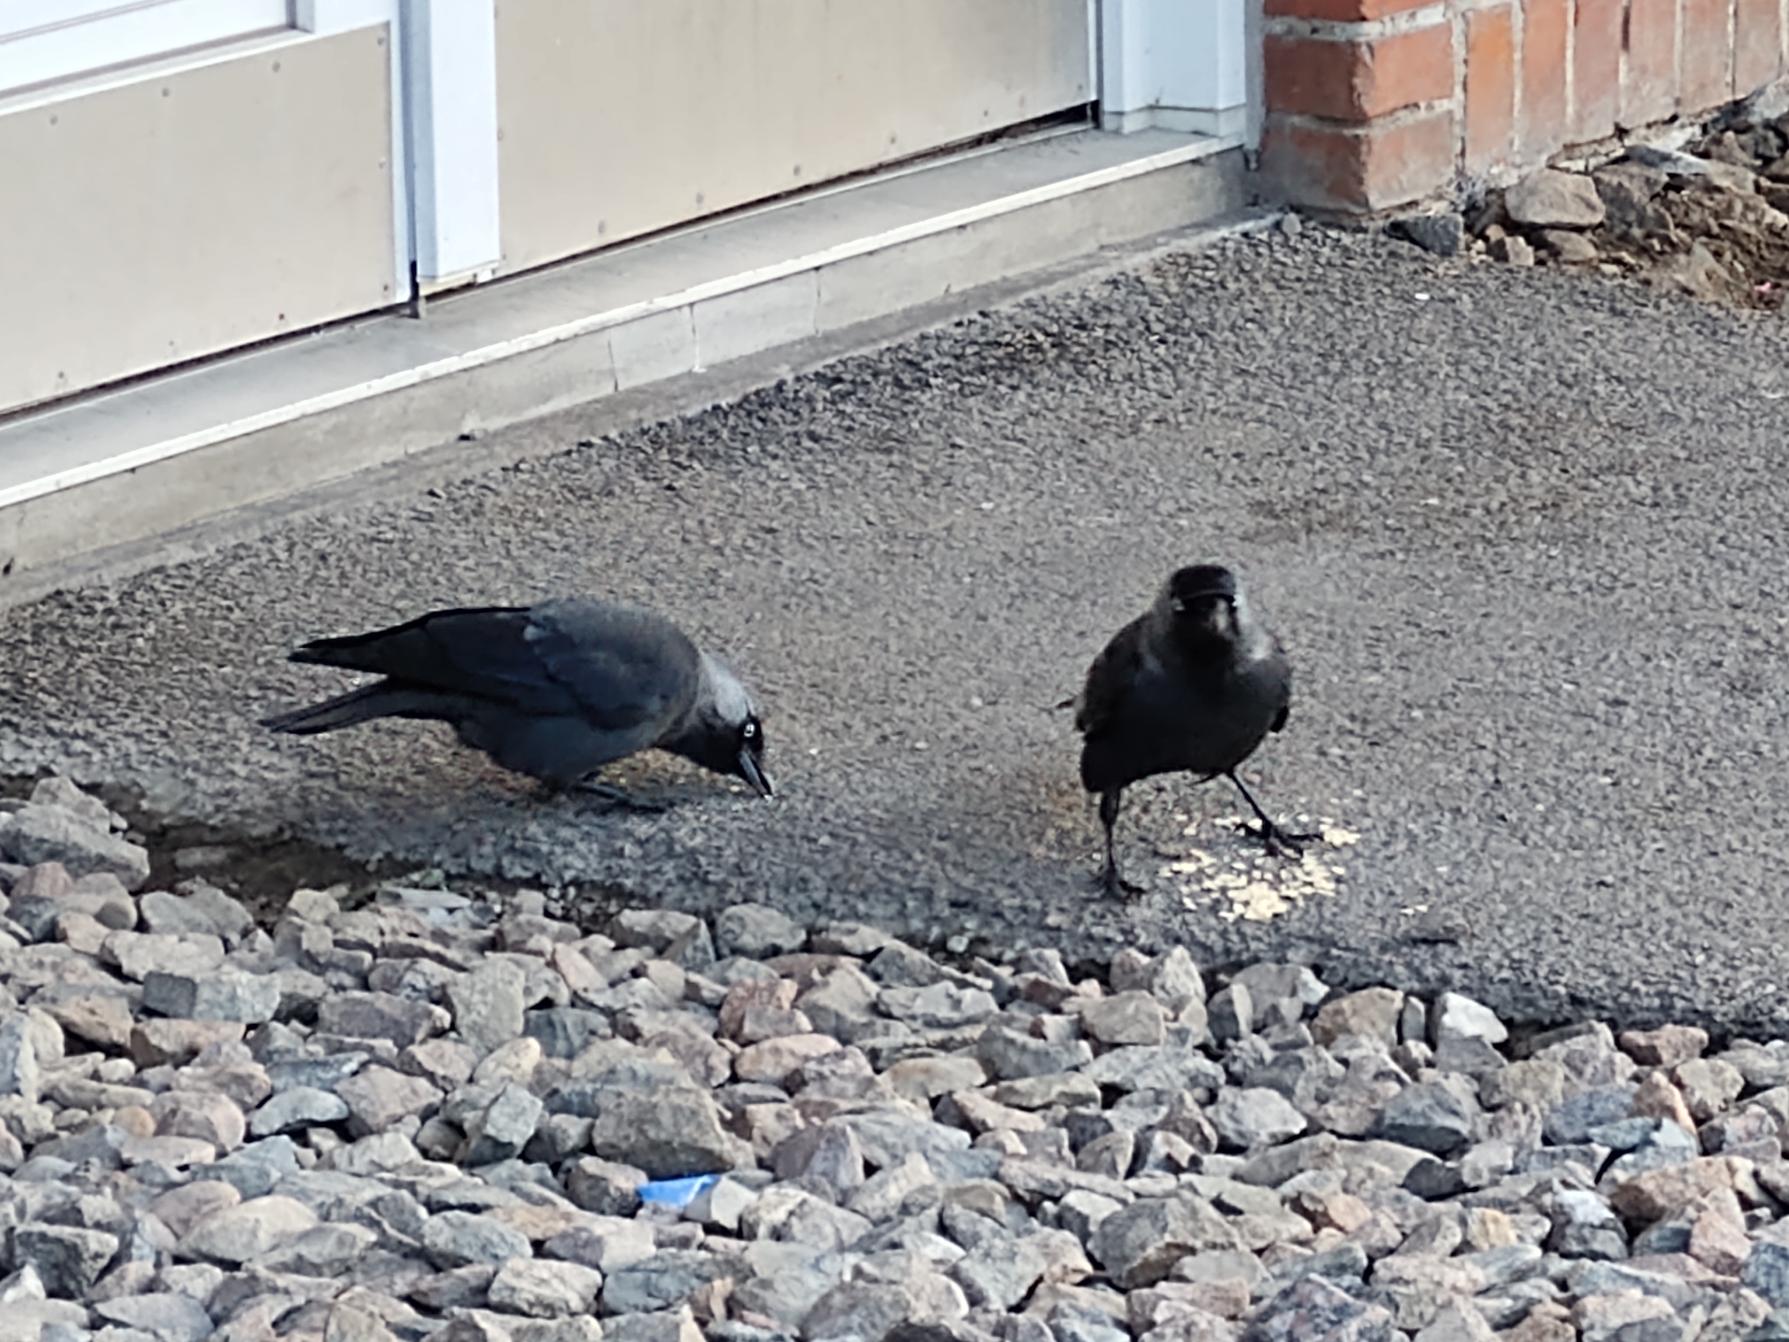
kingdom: Animalia
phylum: Chordata
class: Aves
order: Passeriformes
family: Corvidae
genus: Coloeus
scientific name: Coloeus monedula
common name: Allike
